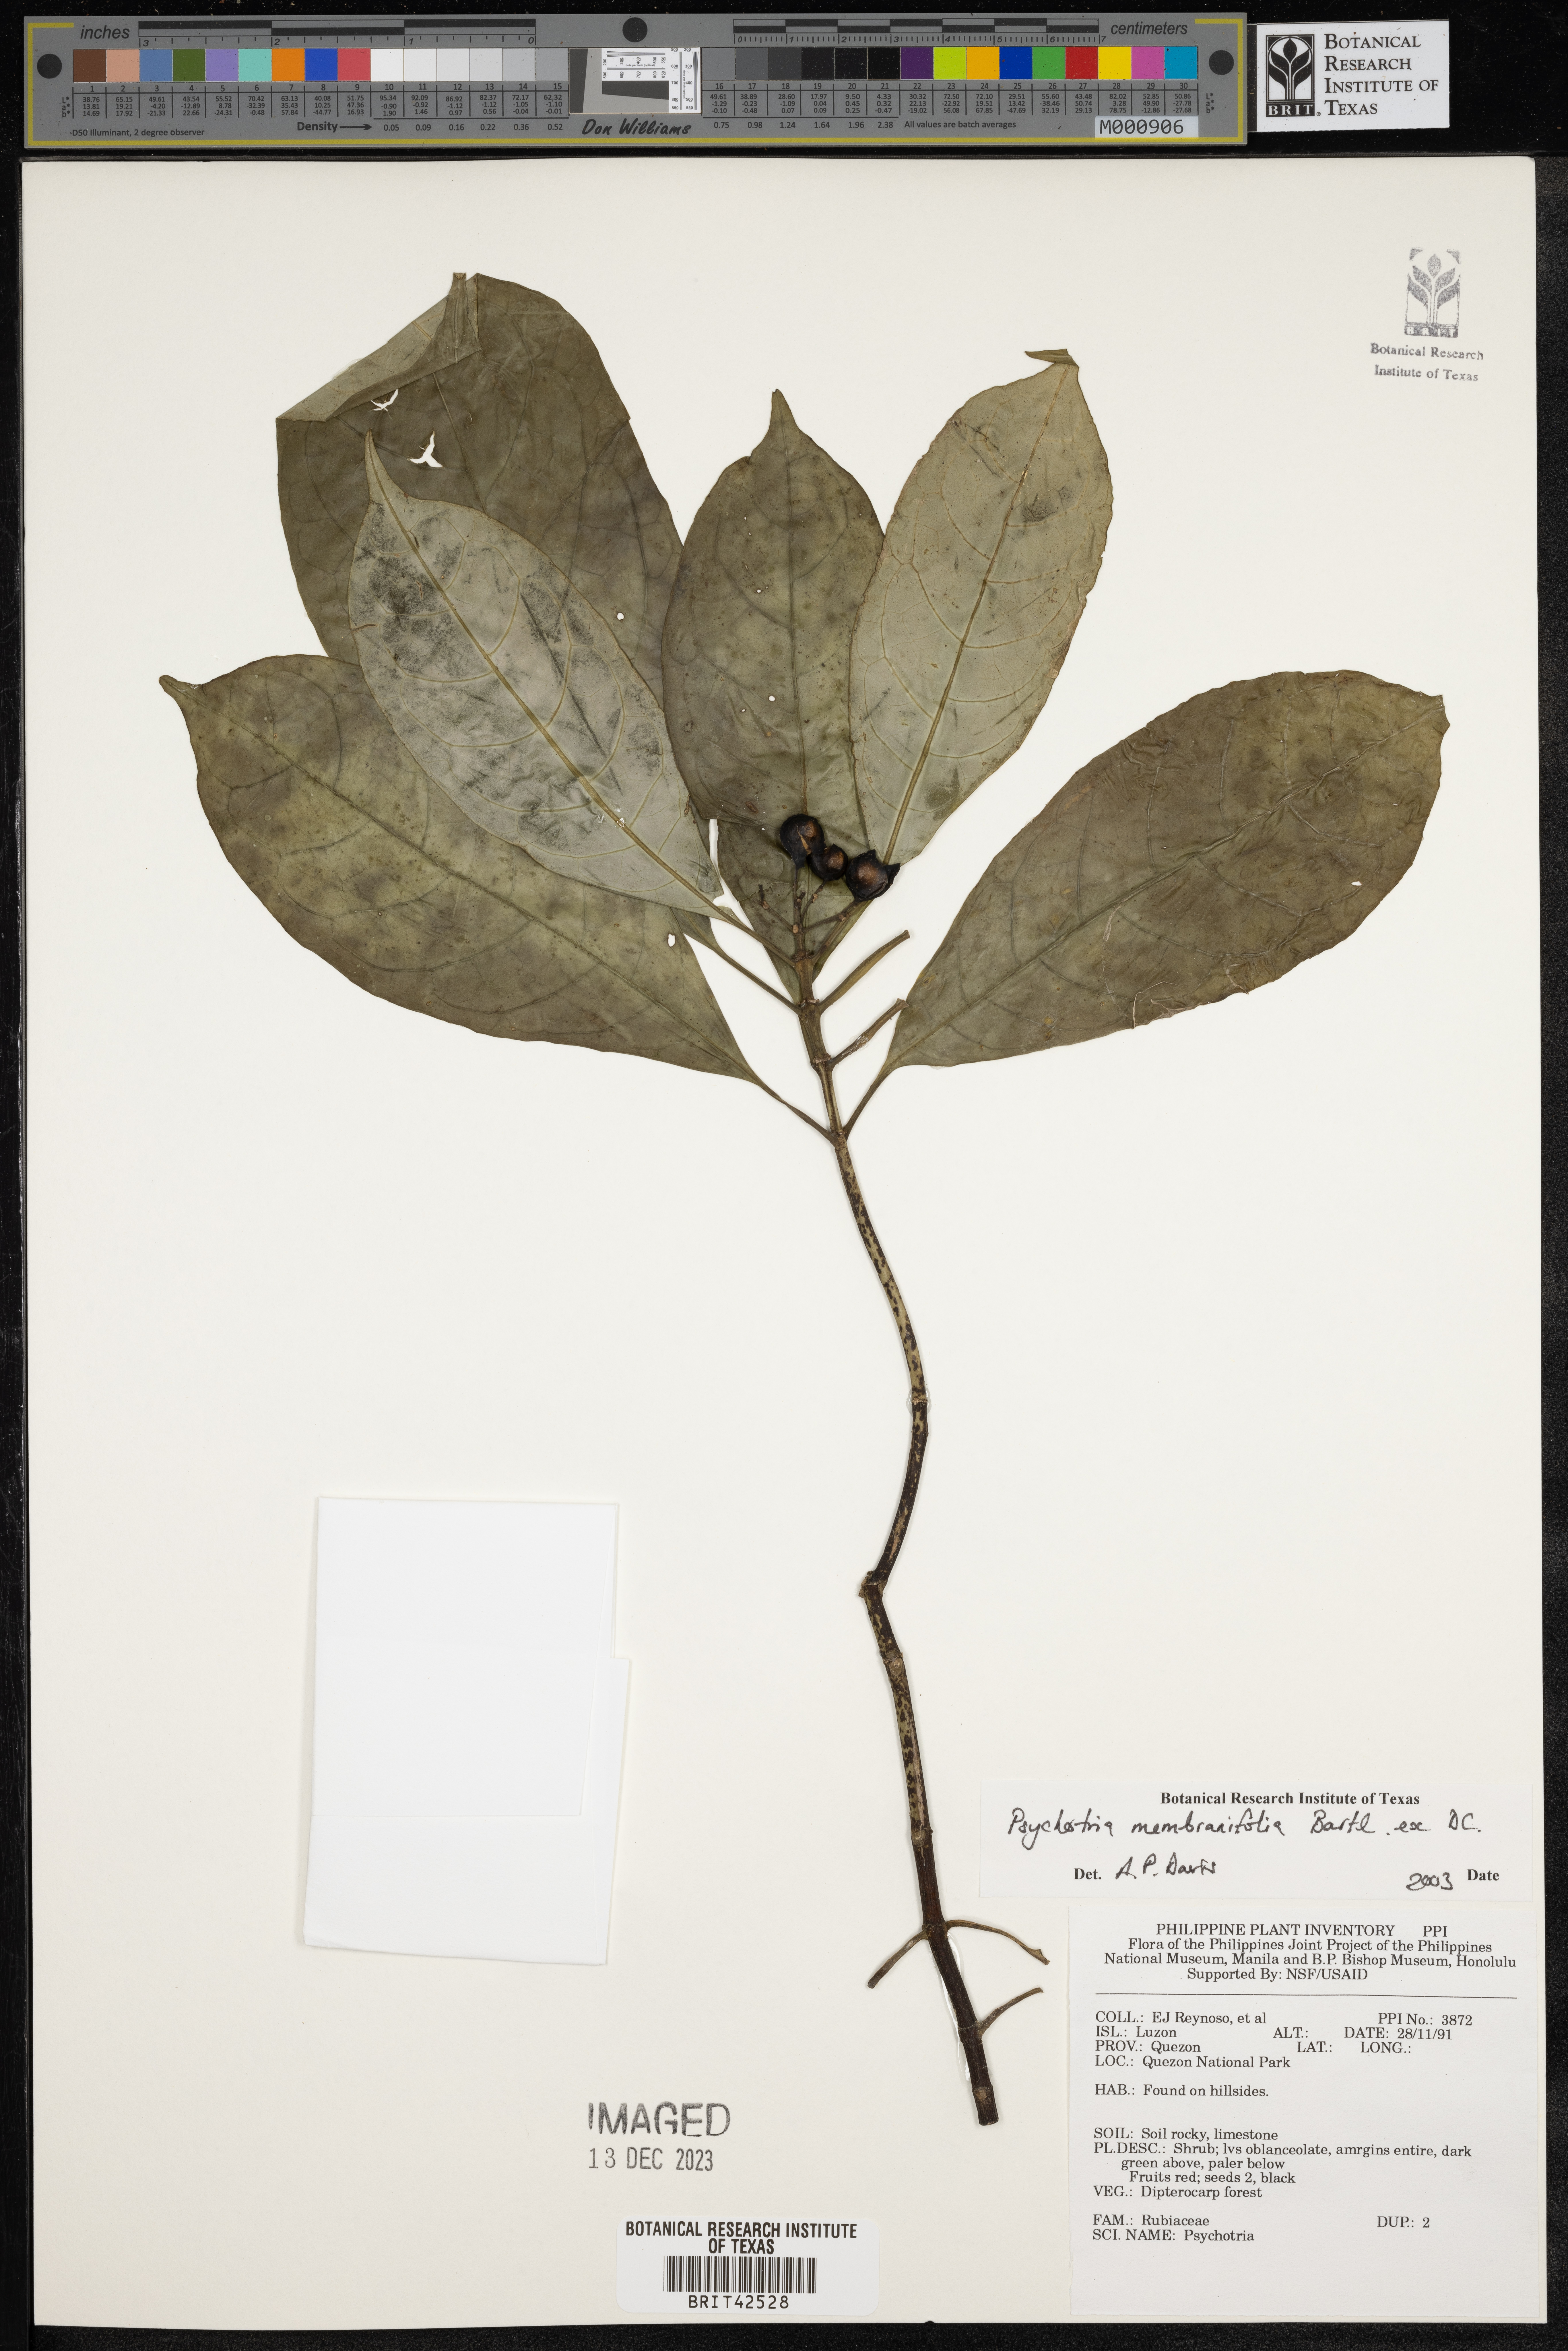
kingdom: Plantae
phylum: Tracheophyta
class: Magnoliopsida
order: Gentianales
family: Rubiaceae
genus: Eumachia
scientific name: Eumachia membranifolia
